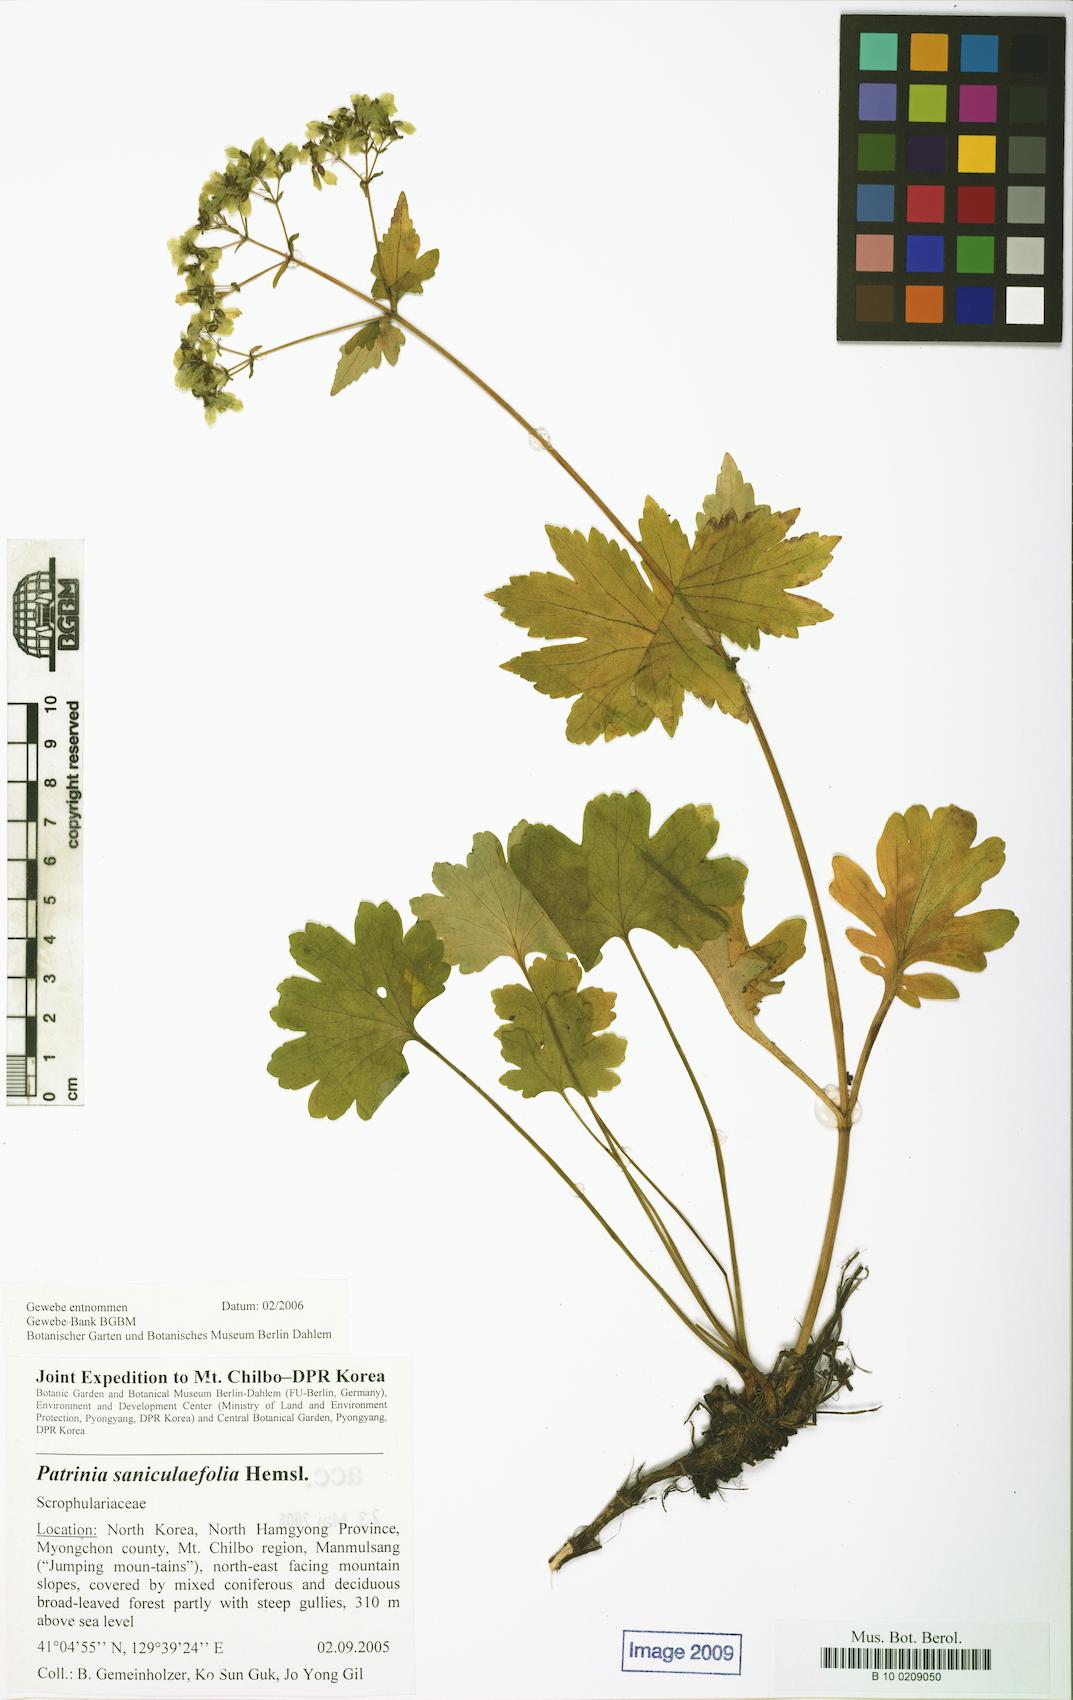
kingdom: Plantae
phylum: Tracheophyta
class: Magnoliopsida
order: Dipsacales
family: Caprifoliaceae
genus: Patrinia
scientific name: Patrinia saniculifolia
